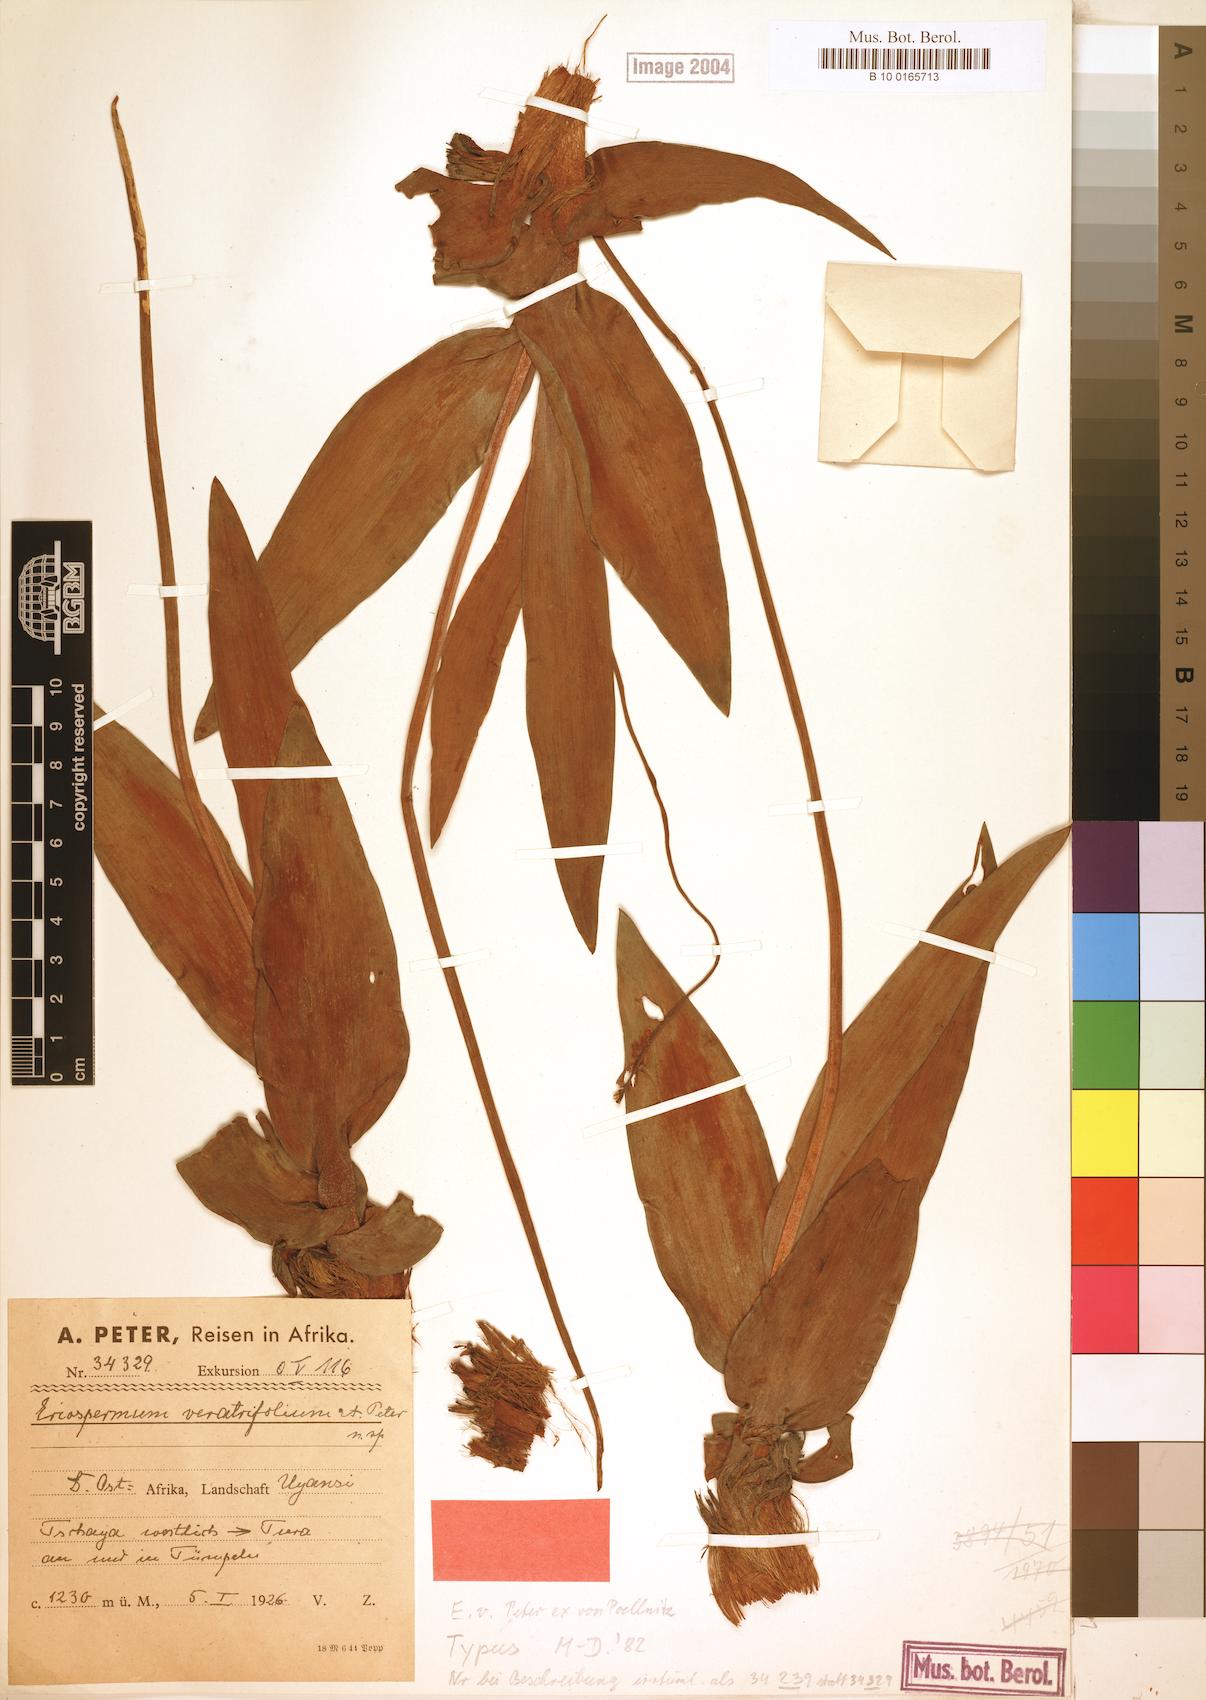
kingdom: Plantae
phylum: Tracheophyta
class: Liliopsida
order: Asparagales
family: Asparagaceae
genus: Eriospermum
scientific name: Eriospermum mackenii
